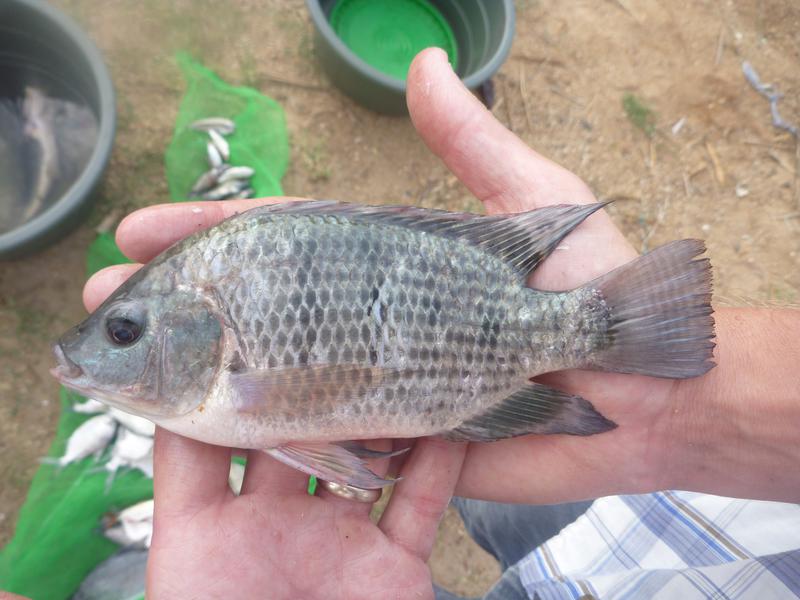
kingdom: Animalia
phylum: Chordata
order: Perciformes
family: Cichlidae
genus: Oreochromis
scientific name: Oreochromis urolepis
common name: Wami tilapia
